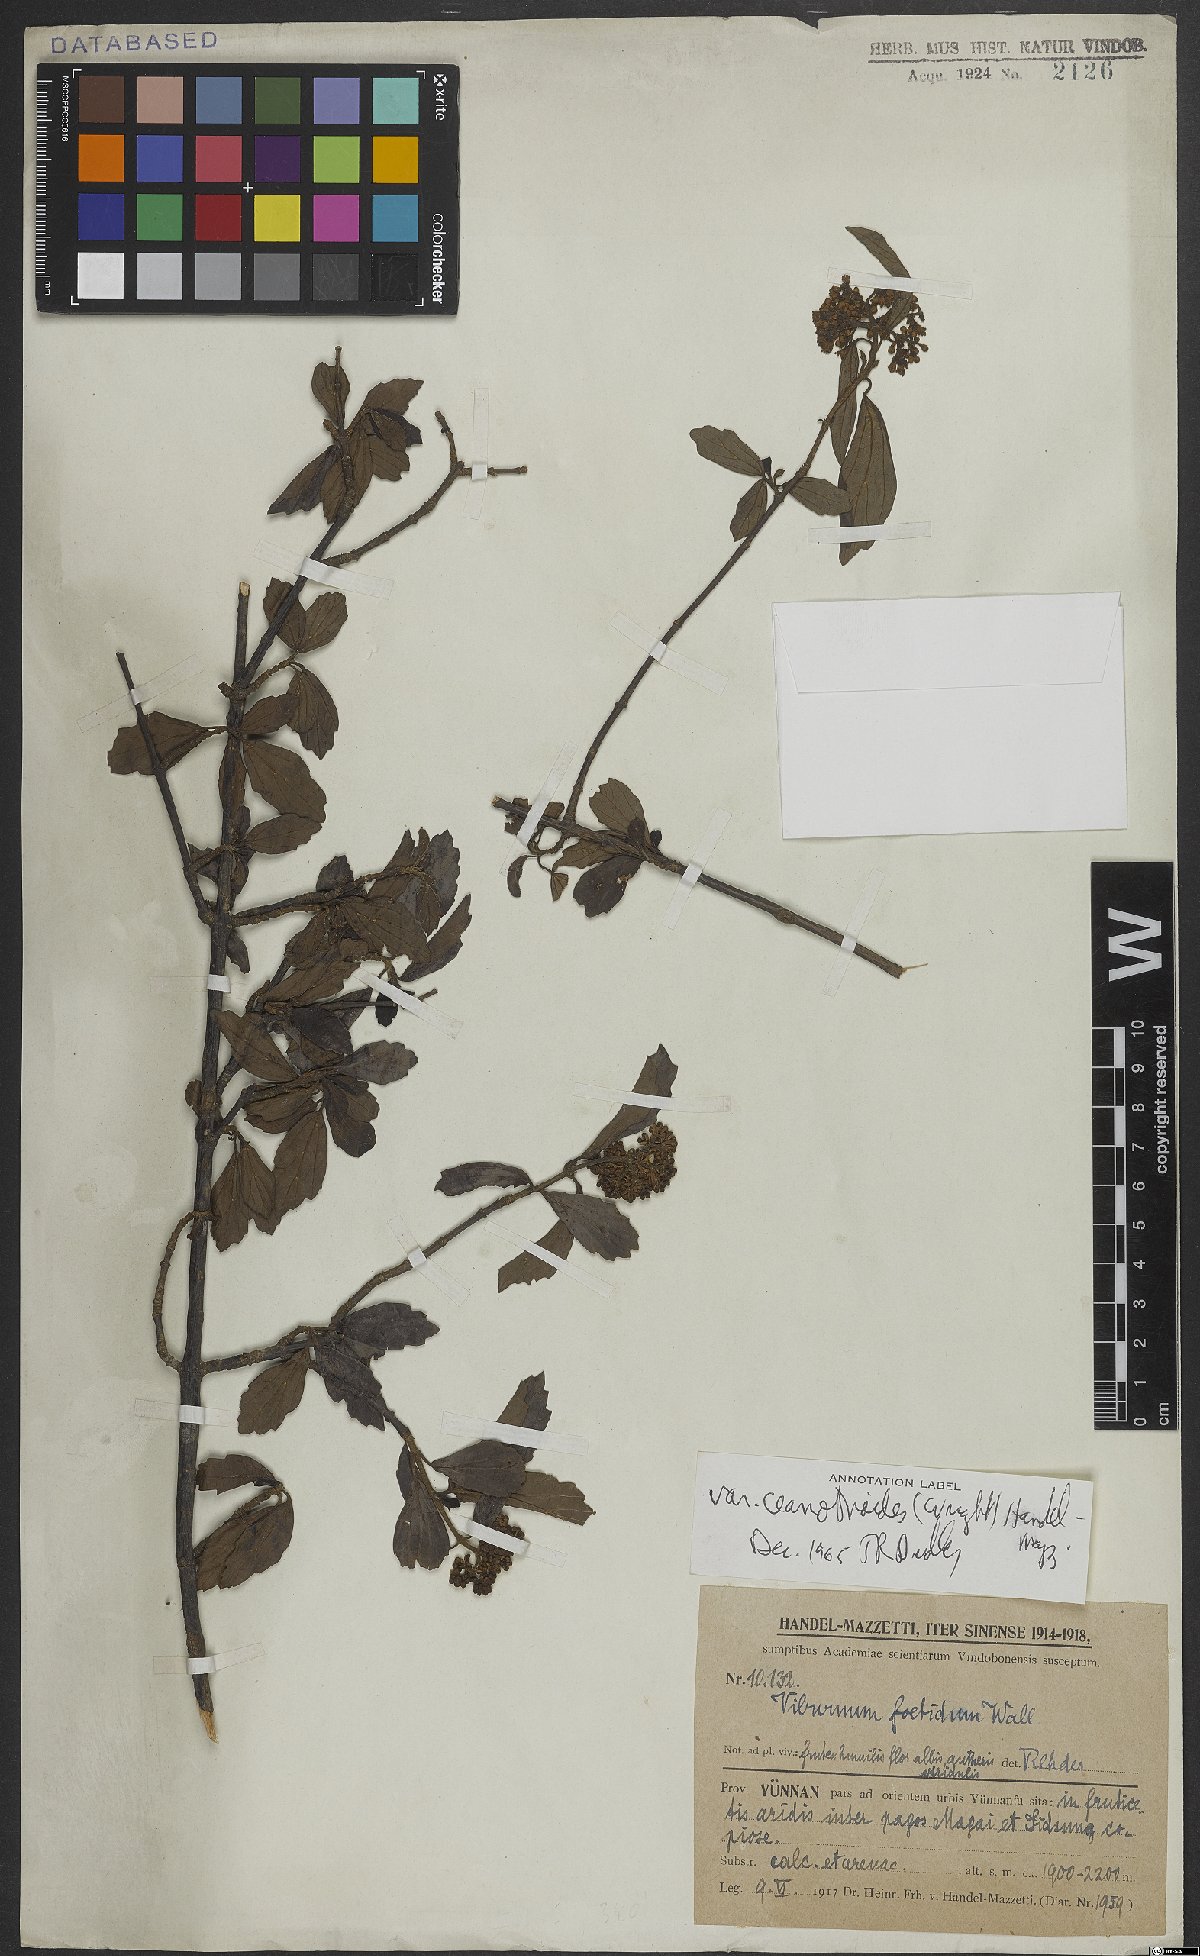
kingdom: Plantae
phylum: Tracheophyta
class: Magnoliopsida
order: Dipsacales
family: Viburnaceae
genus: Viburnum
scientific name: Viburnum foetidum
